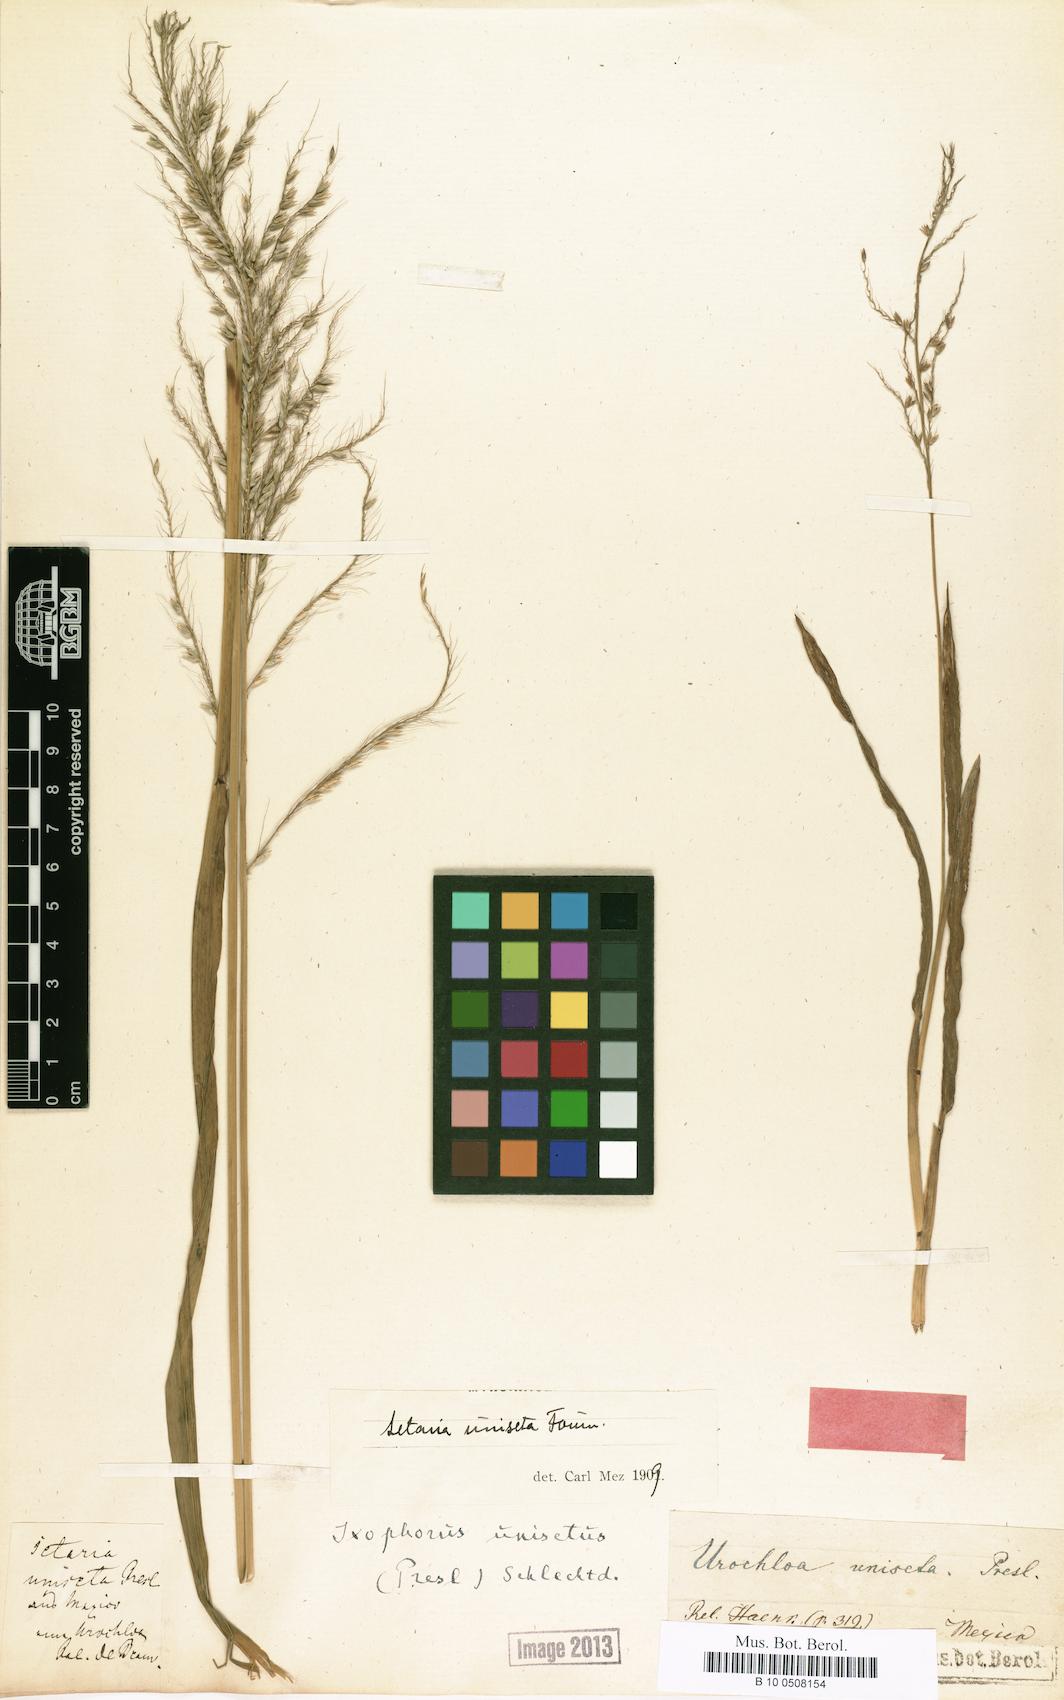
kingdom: Plantae
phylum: Tracheophyta
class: Liliopsida
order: Poales
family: Poaceae
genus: Ixophorus
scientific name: Ixophorus unisetus
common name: Crane grass
